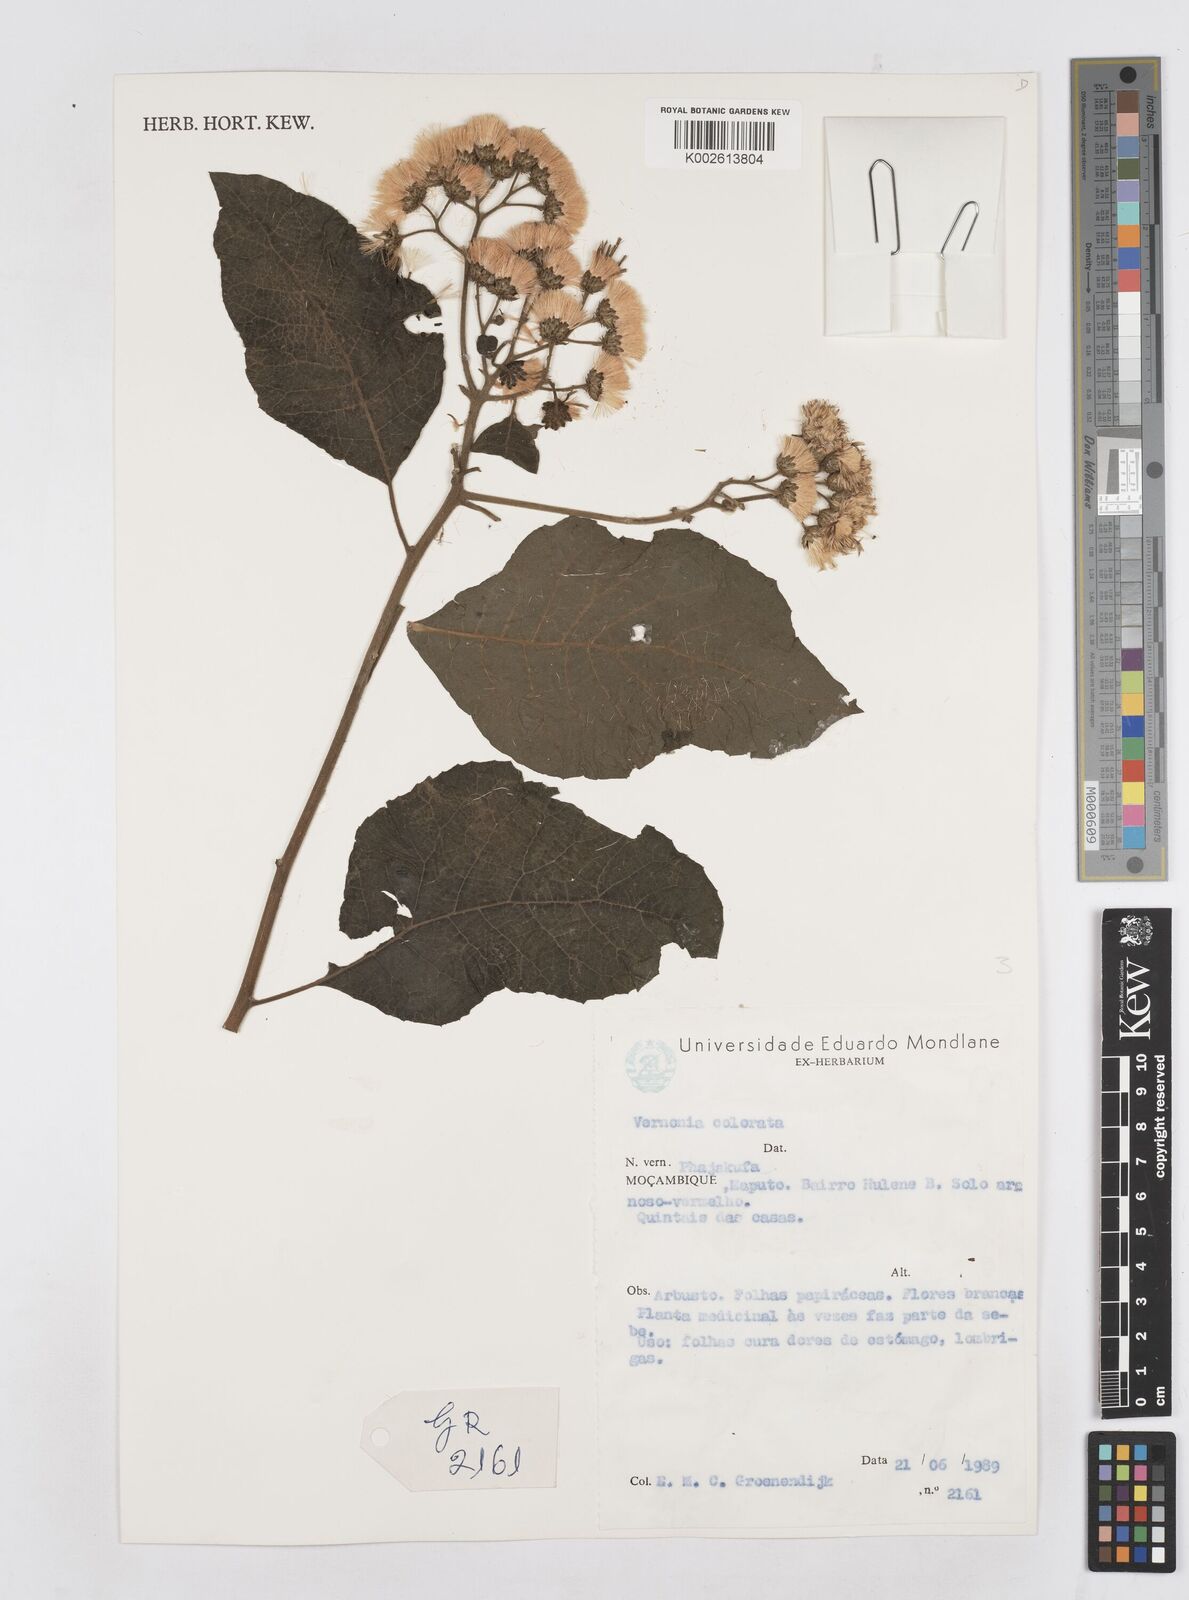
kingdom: Plantae
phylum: Tracheophyta
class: Magnoliopsida
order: Asterales
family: Asteraceae
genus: Vernonia
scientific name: Vernonia colorata
